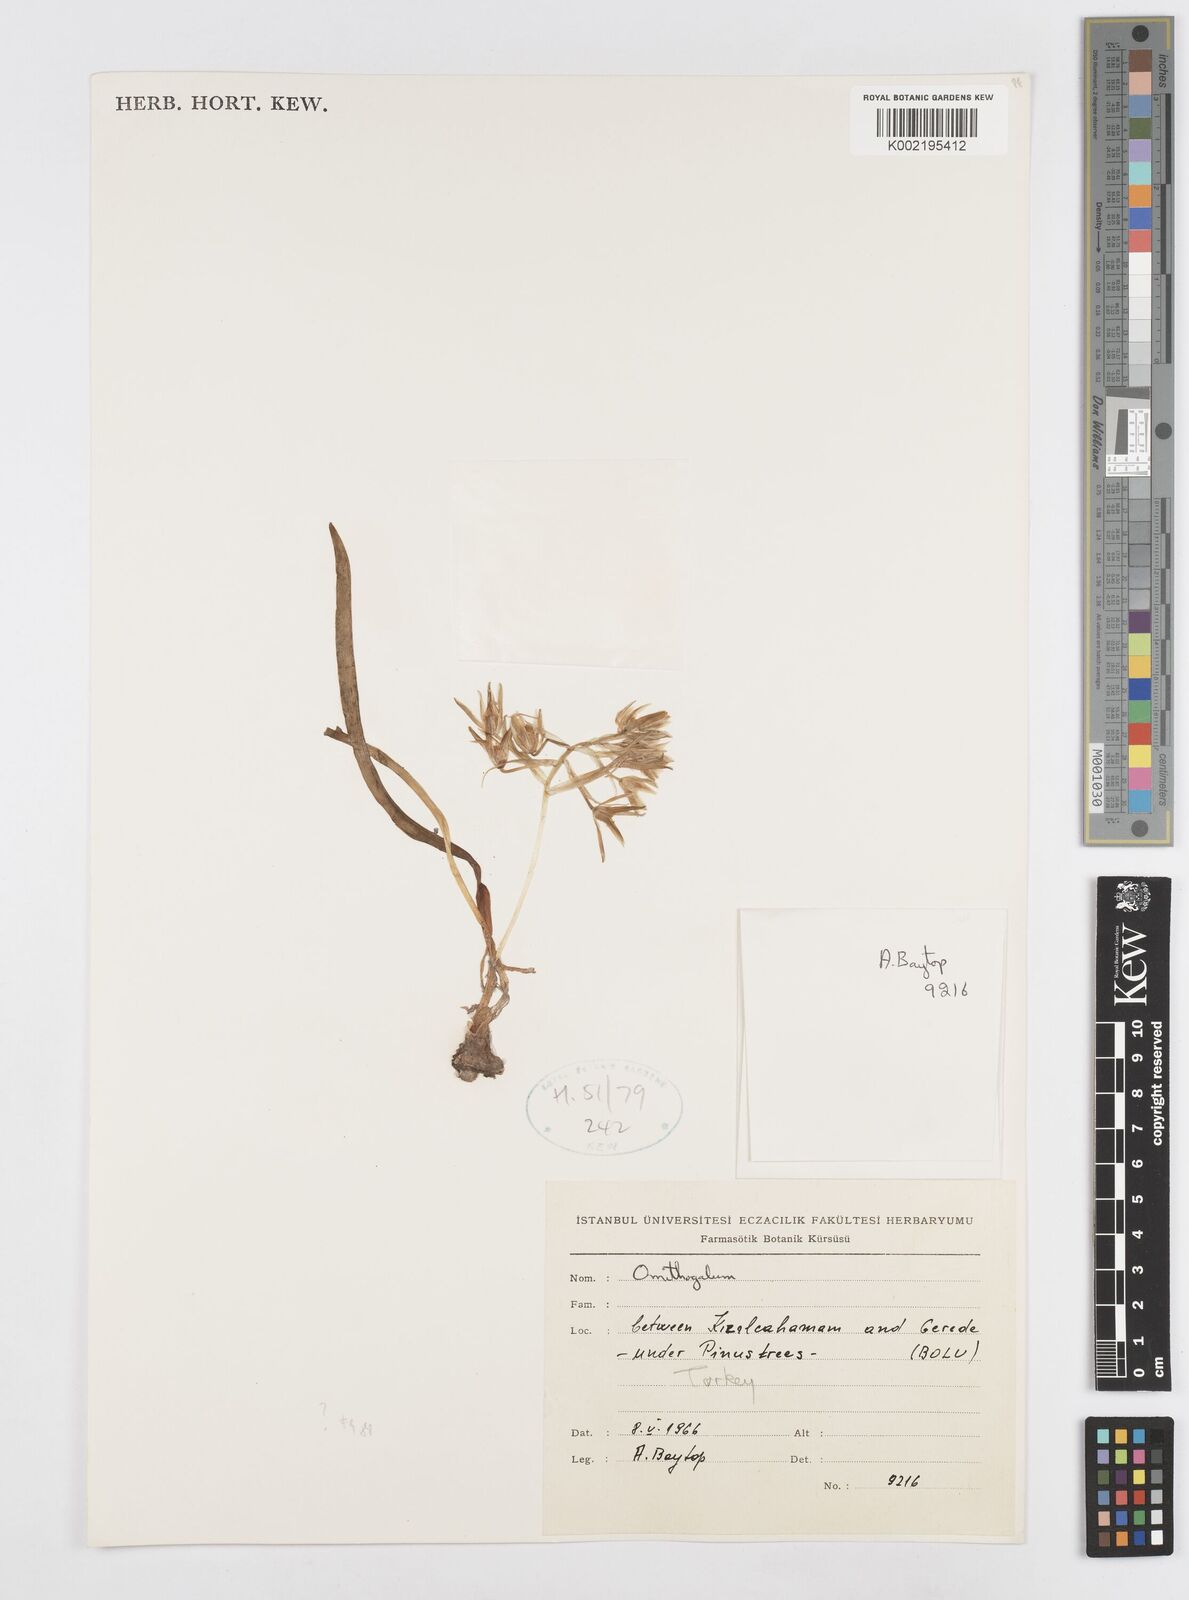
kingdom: Plantae
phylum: Tracheophyta
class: Liliopsida
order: Asparagales
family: Asparagaceae
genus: Ornithogalum
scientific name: Ornithogalum sigmoideum
